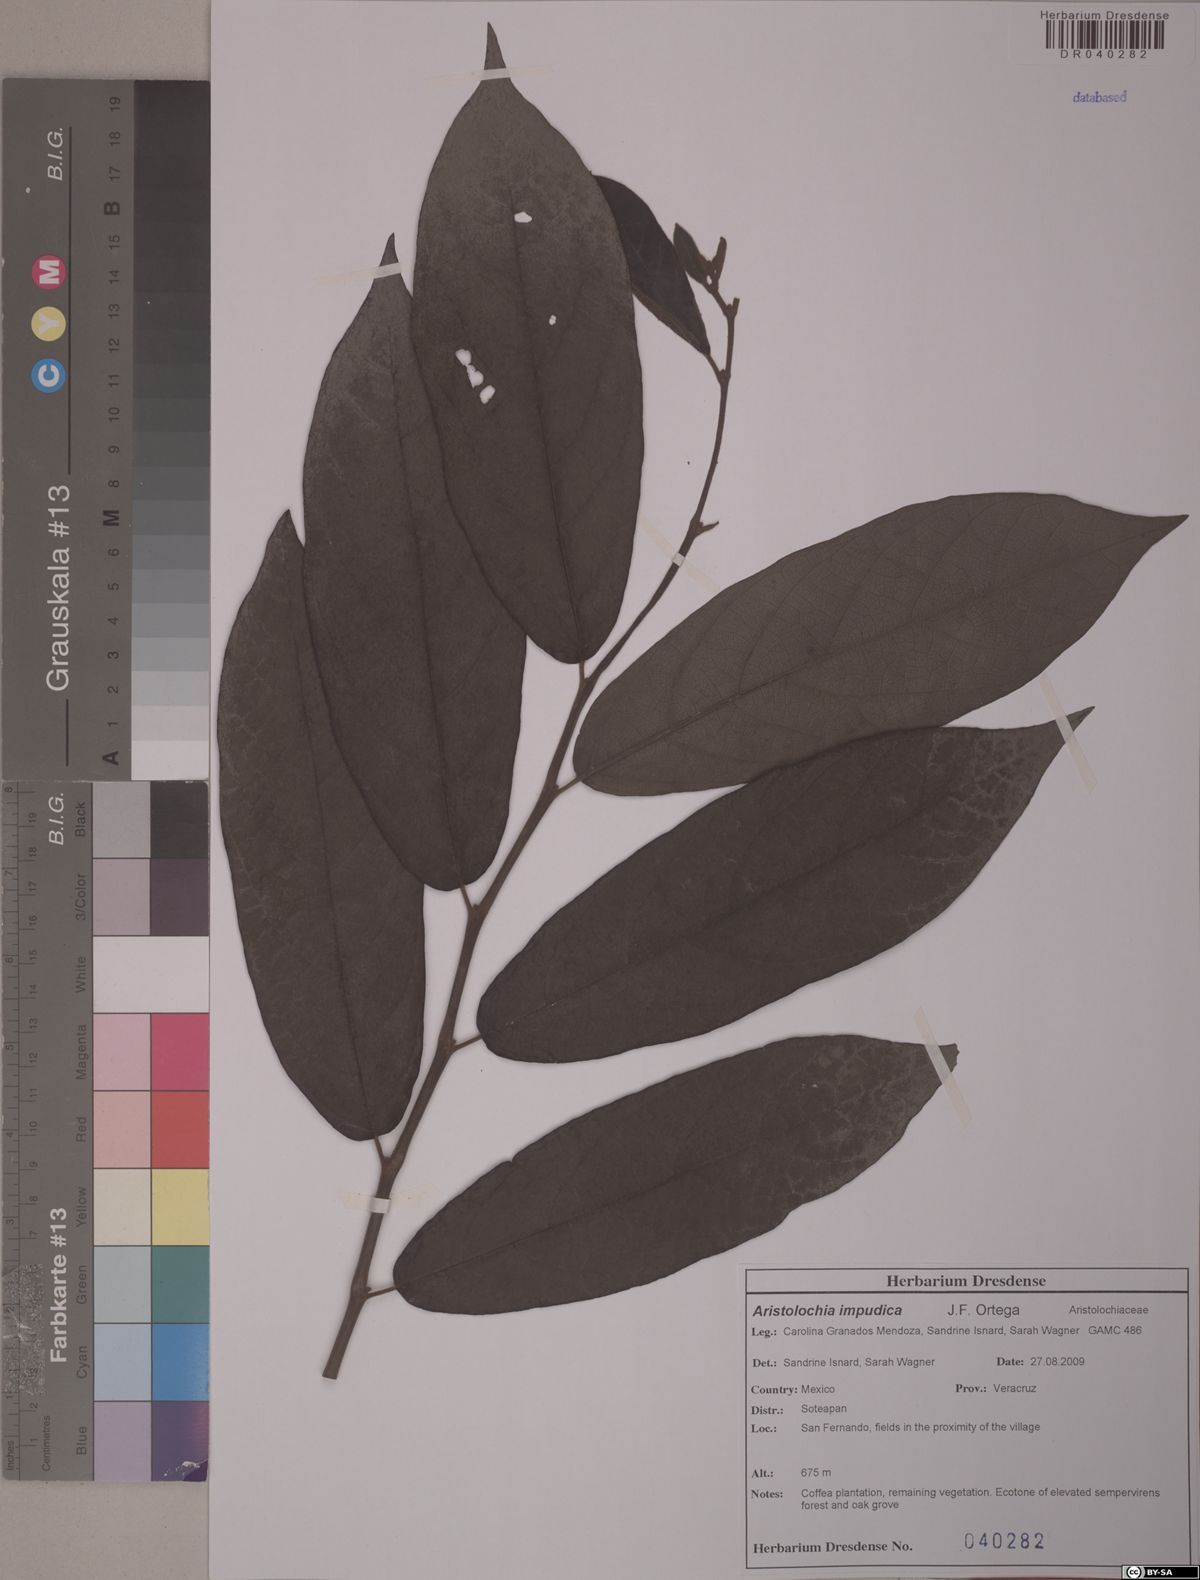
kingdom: Plantae
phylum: Tracheophyta
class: Magnoliopsida
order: Piperales
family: Aristolochiaceae
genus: Isotrema
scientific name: Isotrema impudicum
